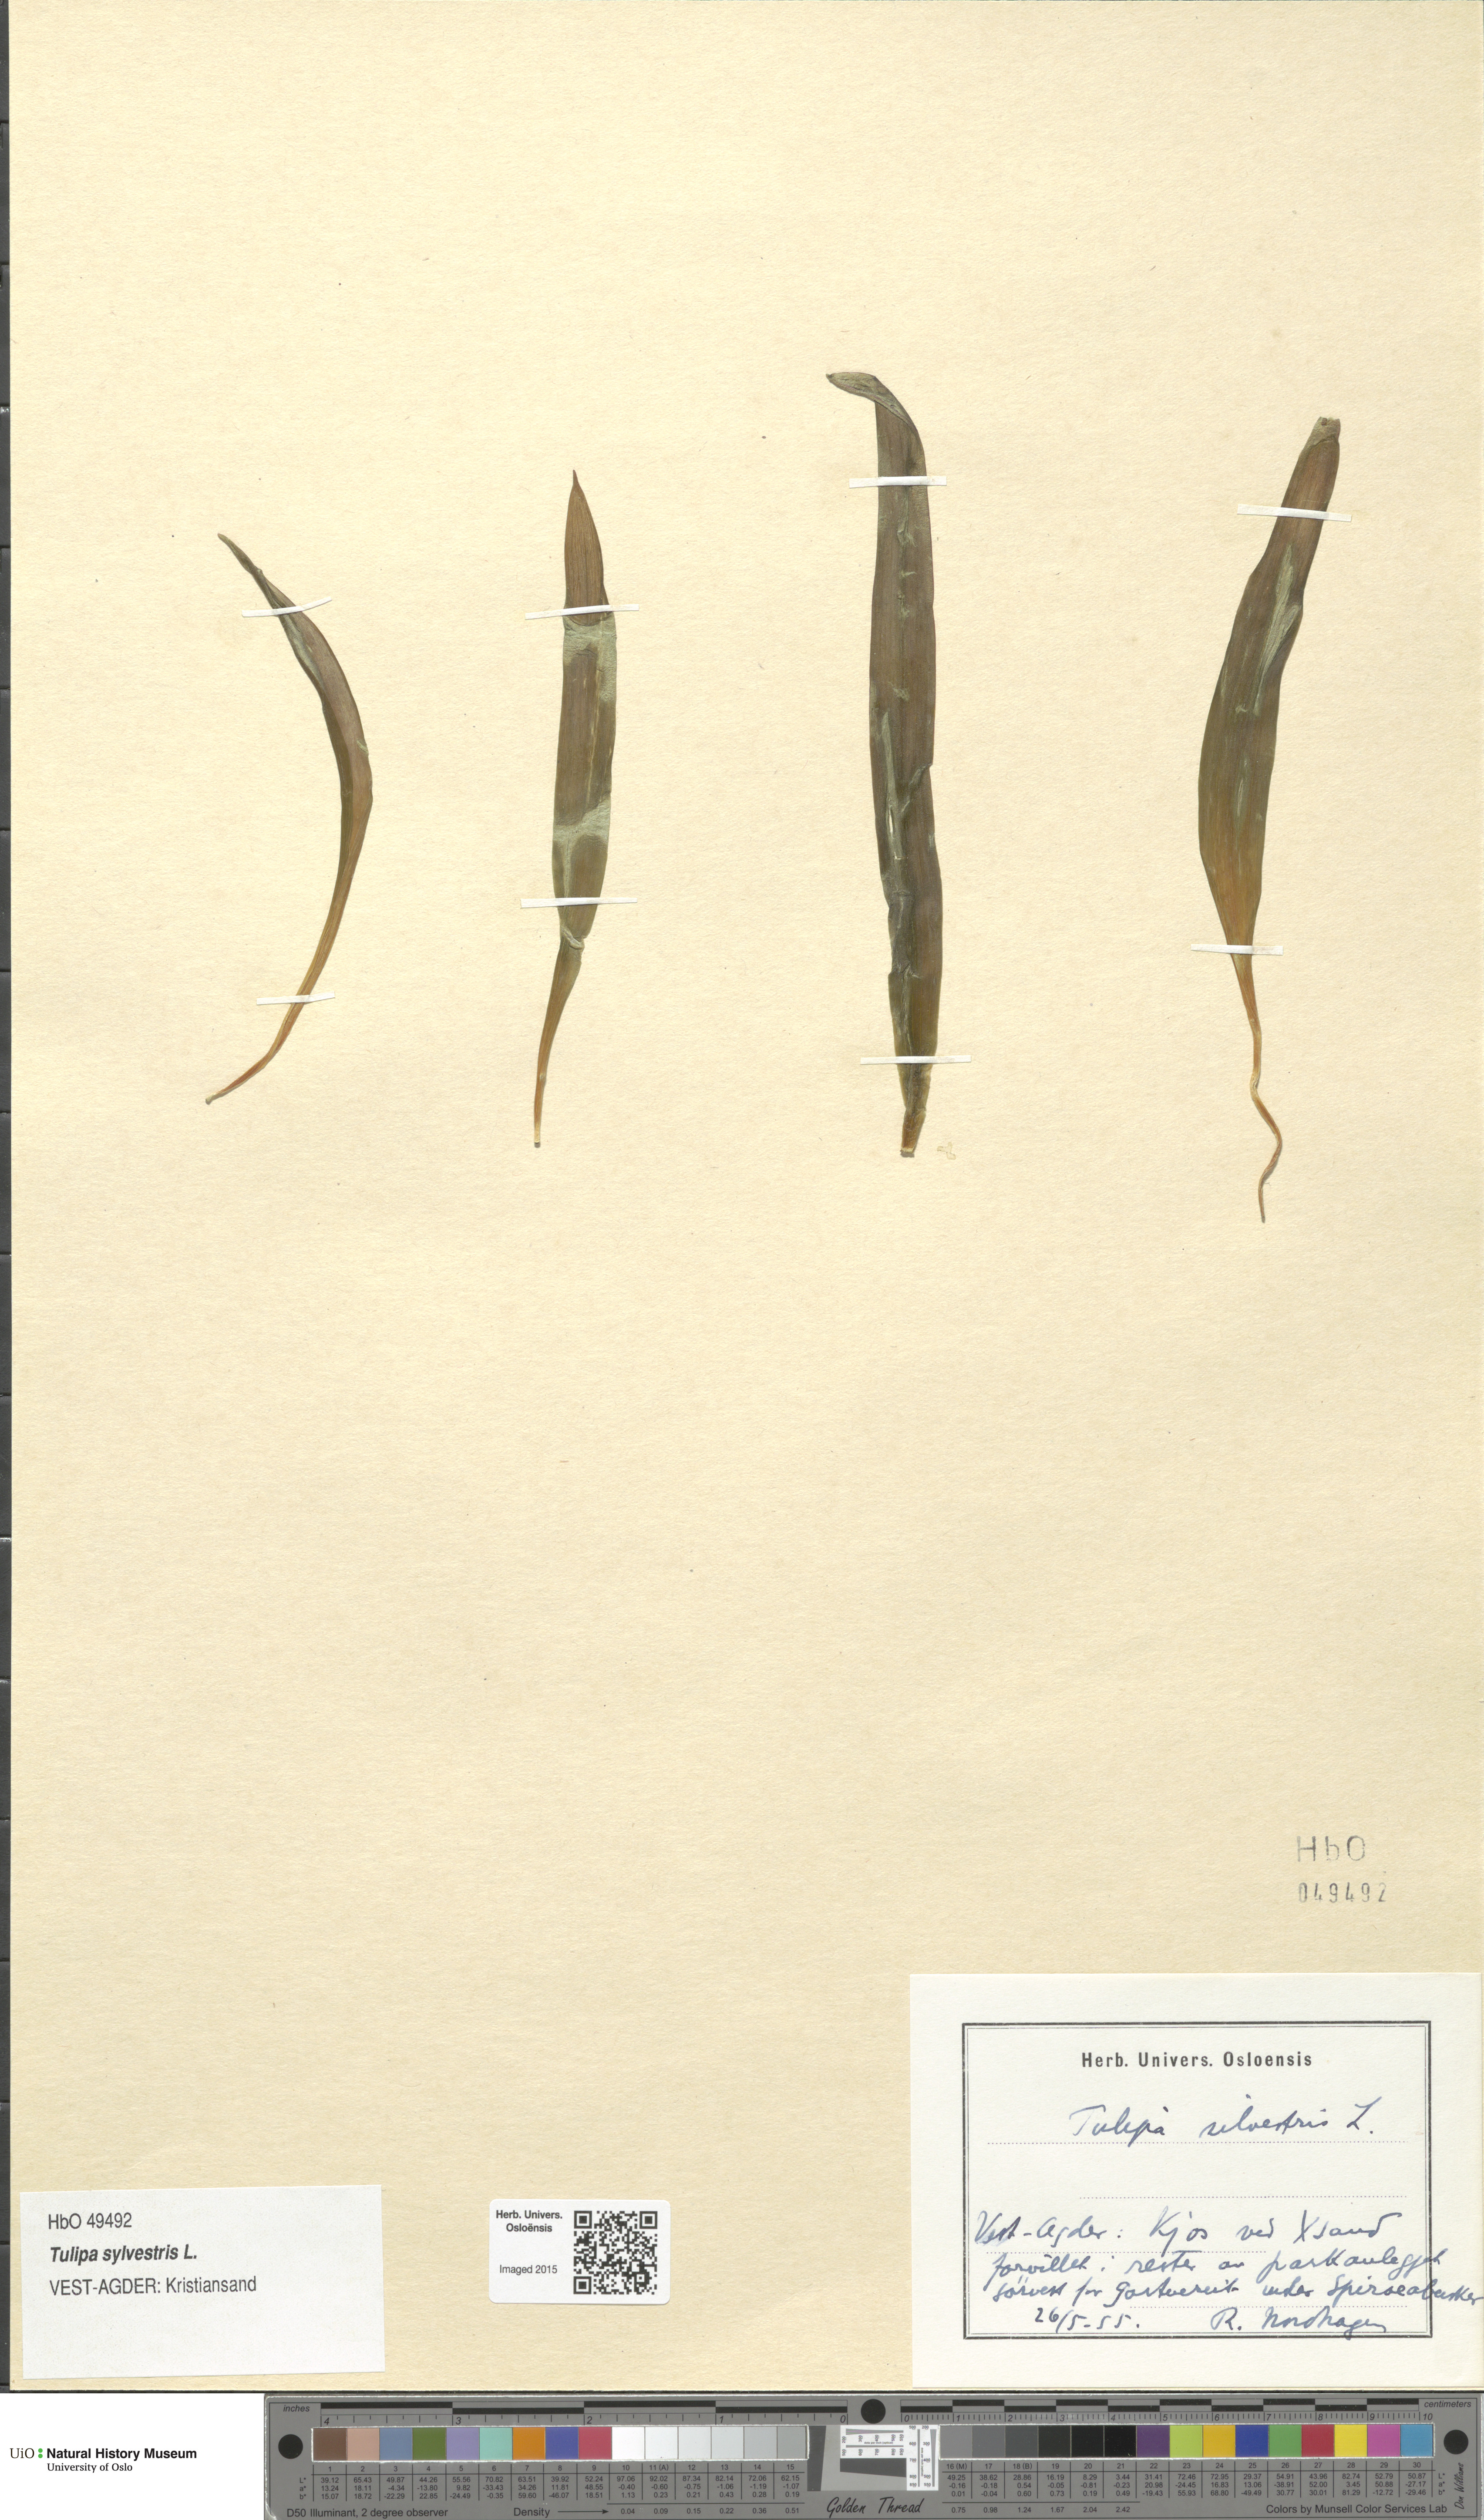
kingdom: Plantae
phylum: Tracheophyta
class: Liliopsida
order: Liliales
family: Liliaceae
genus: Tulipa
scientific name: Tulipa sylvestris
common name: Wild tulip
